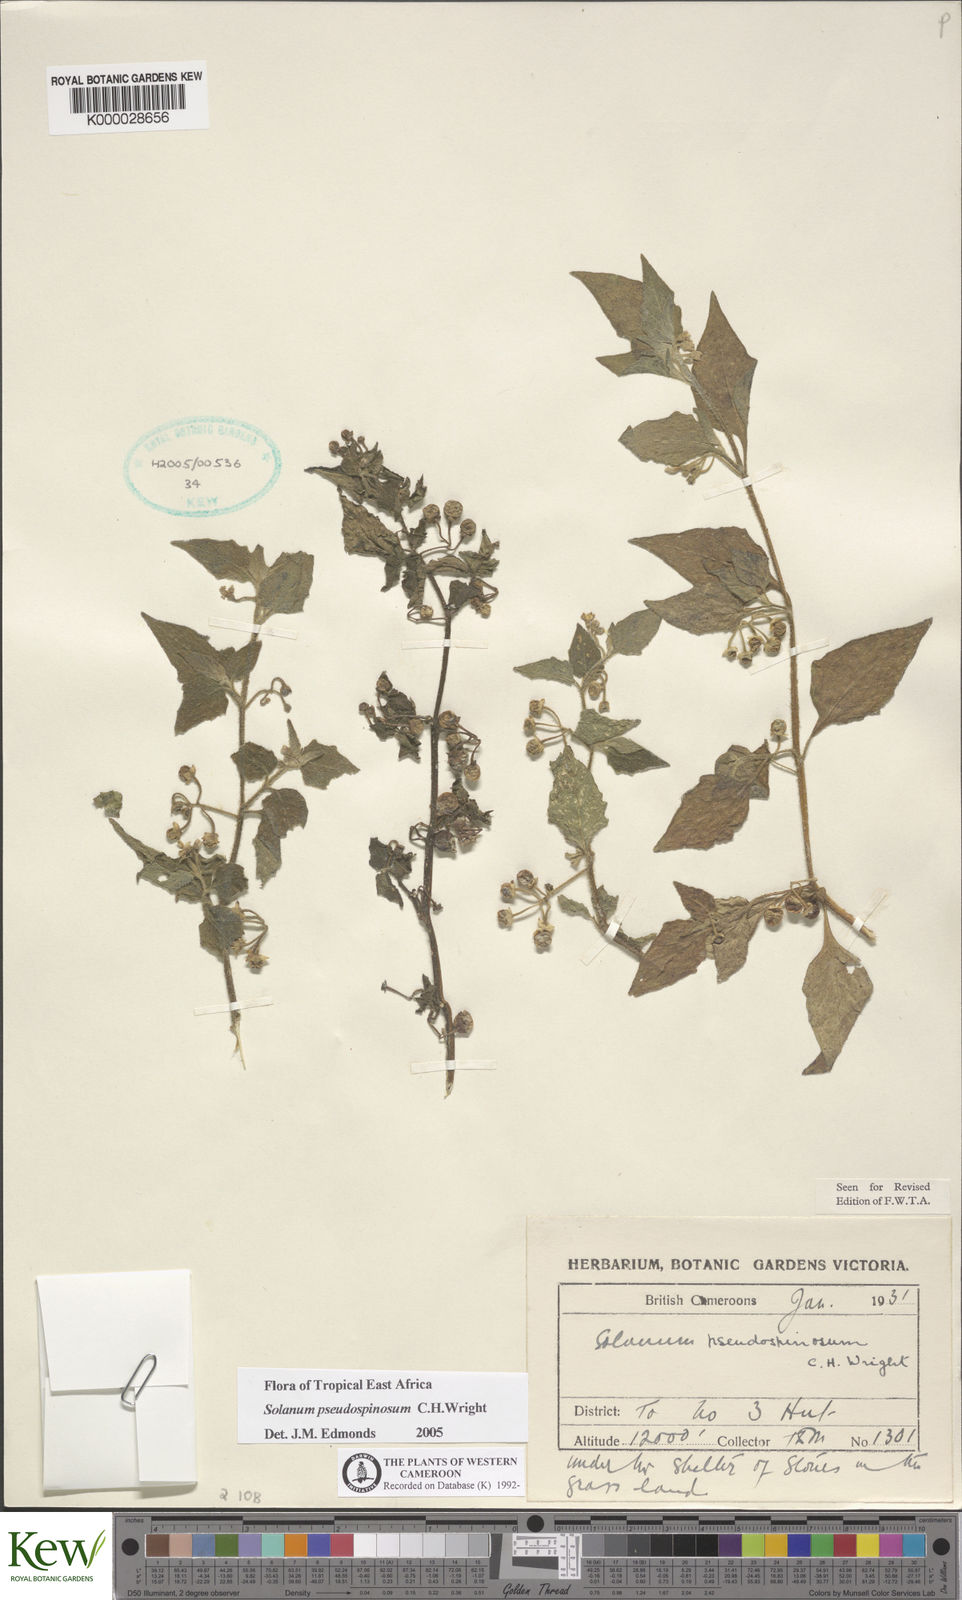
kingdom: Plantae
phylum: Tracheophyta
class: Magnoliopsida
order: Solanales
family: Solanaceae
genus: Solanum
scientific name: Solanum pseudospinosum
